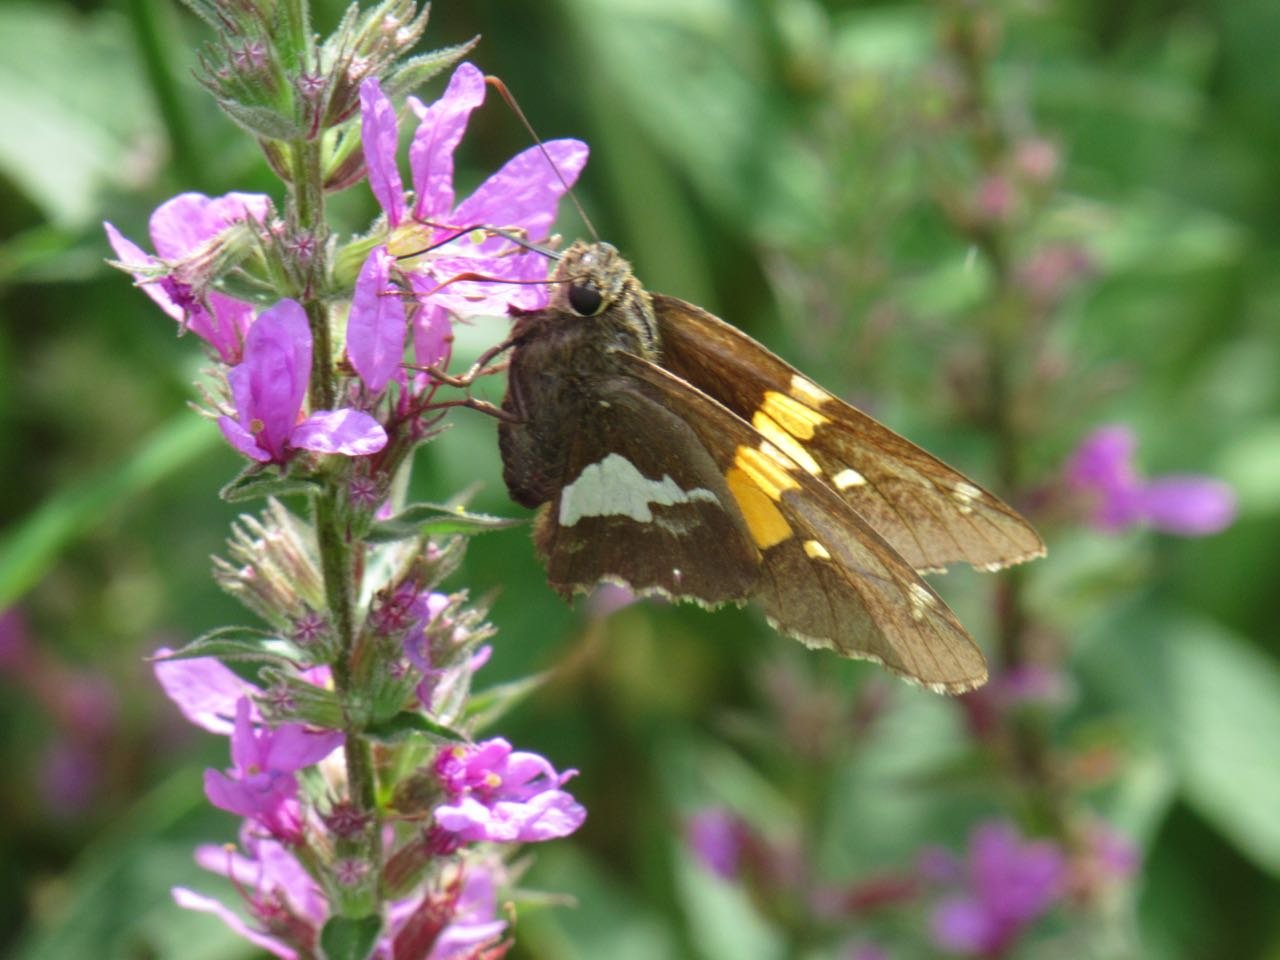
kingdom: Animalia
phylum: Arthropoda
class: Insecta
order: Lepidoptera
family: Hesperiidae
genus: Epargyreus
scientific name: Epargyreus clarus
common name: Silver-spotted Skipper
